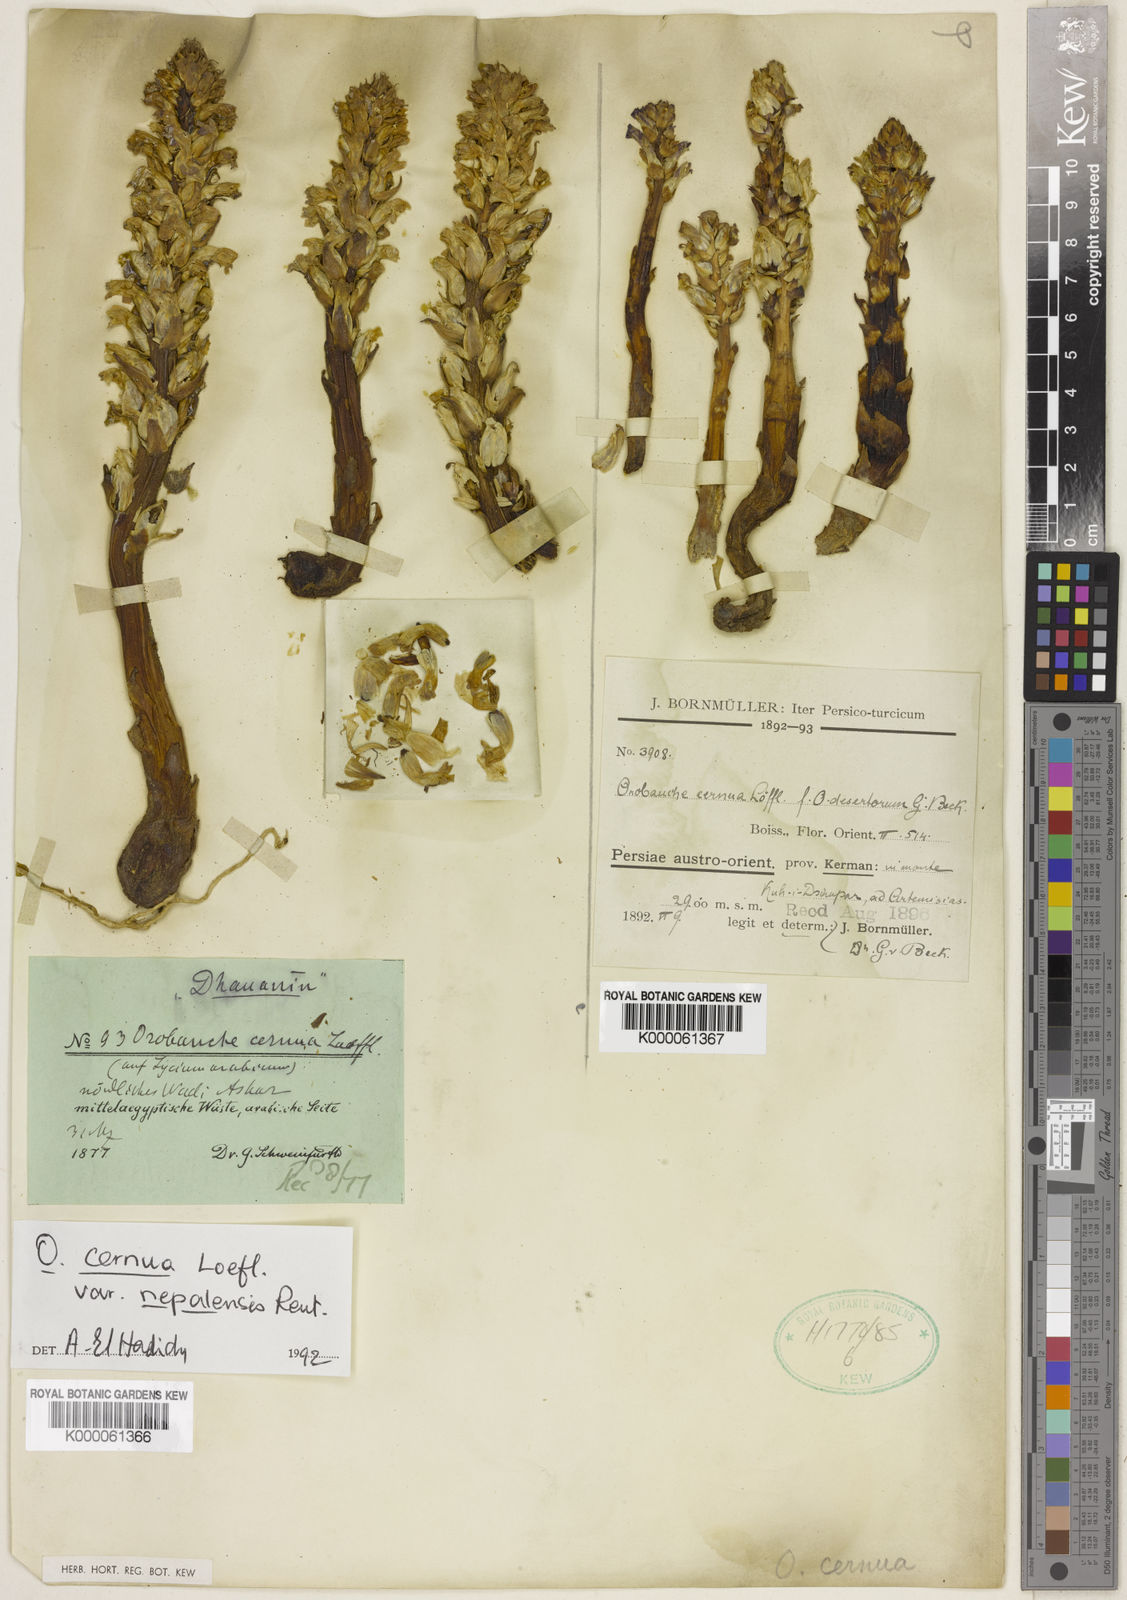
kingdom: Plantae
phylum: Tracheophyta
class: Magnoliopsida
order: Lamiales
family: Orobanchaceae
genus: Orobanche
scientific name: Orobanche cernua
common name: Australian broomrape
